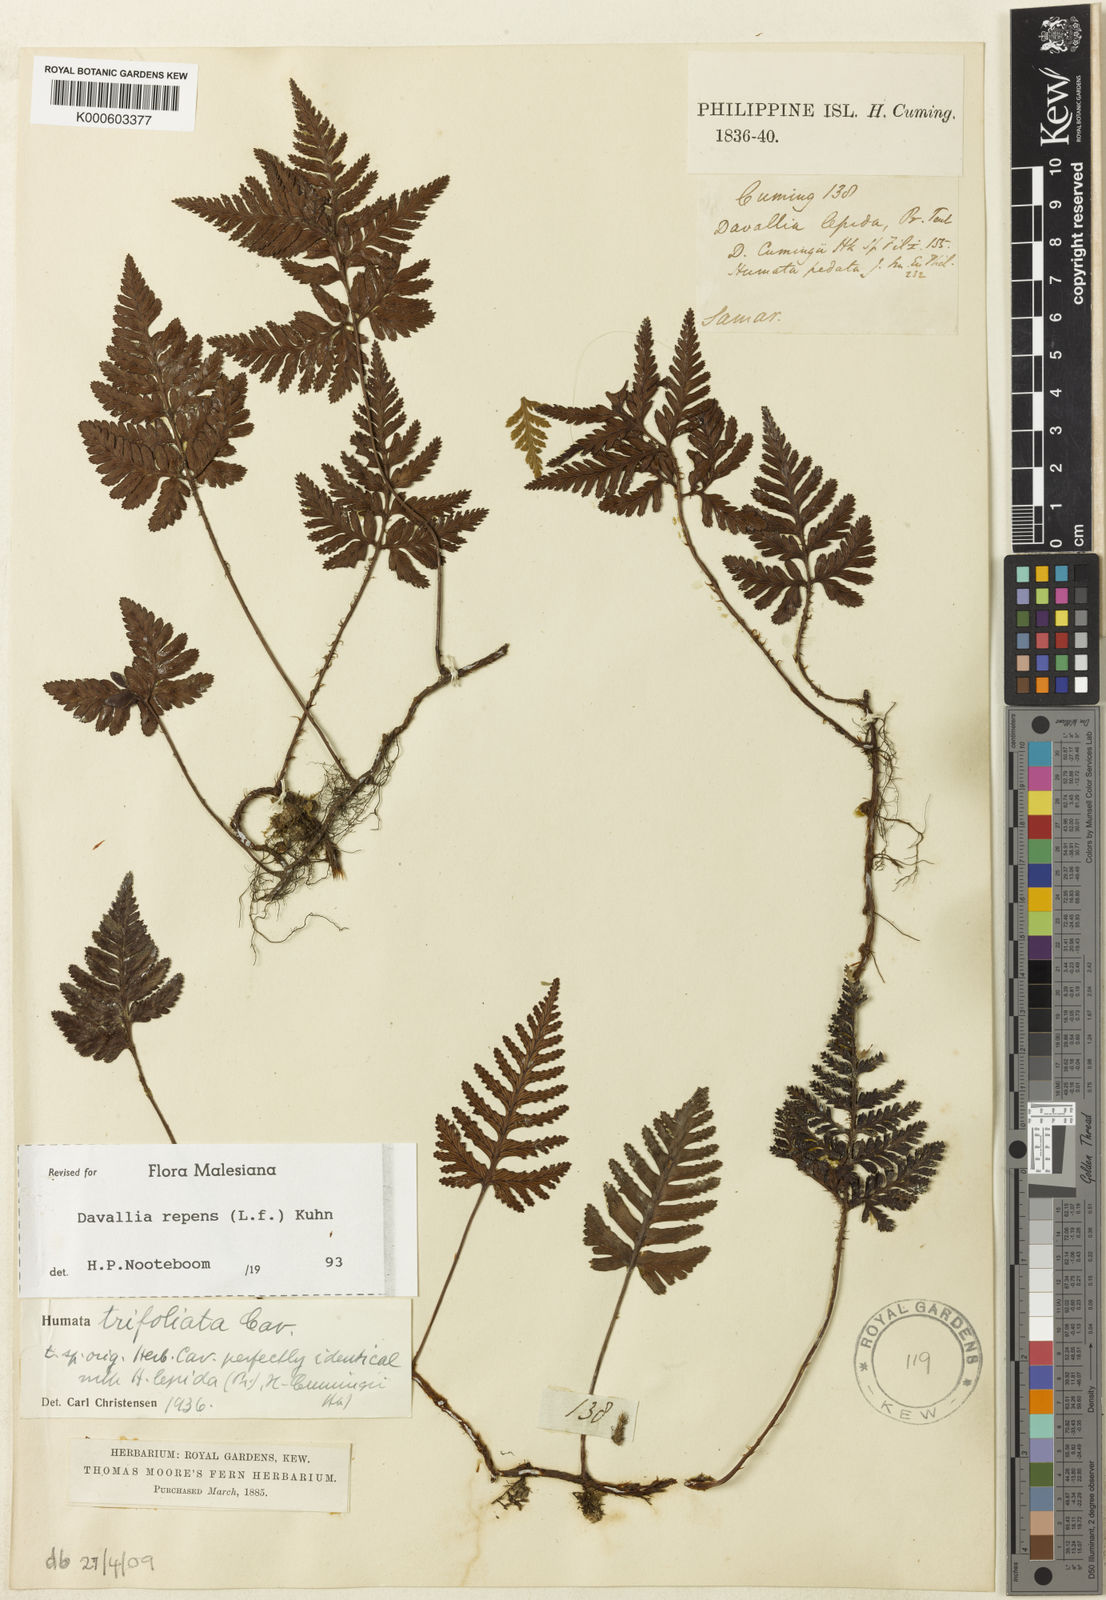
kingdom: Plantae
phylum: Tracheophyta
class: Polypodiopsida
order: Polypodiales
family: Davalliaceae
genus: Davallia
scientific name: Davallia graeffei
